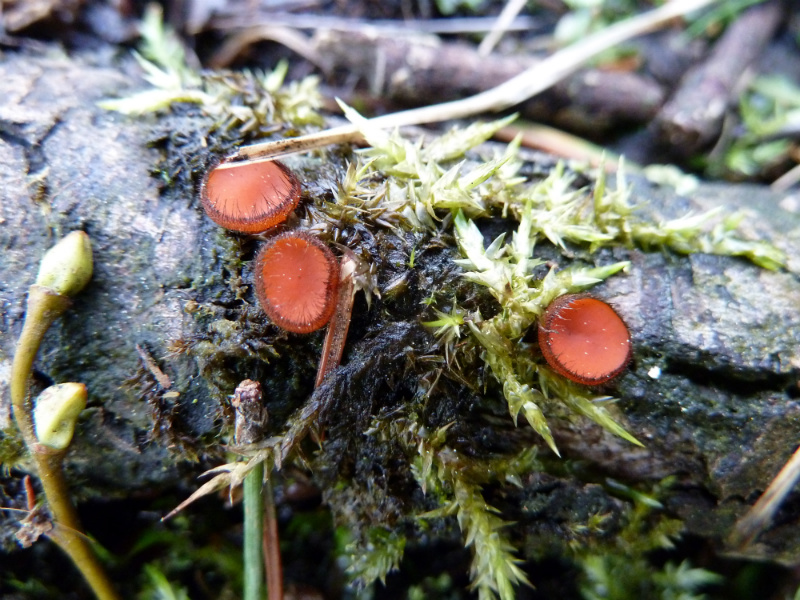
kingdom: Fungi
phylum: Ascomycota
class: Pezizomycetes
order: Pezizales
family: Pyronemataceae
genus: Scutellinia
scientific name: Scutellinia scutellata
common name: frynset skjoldbæger
